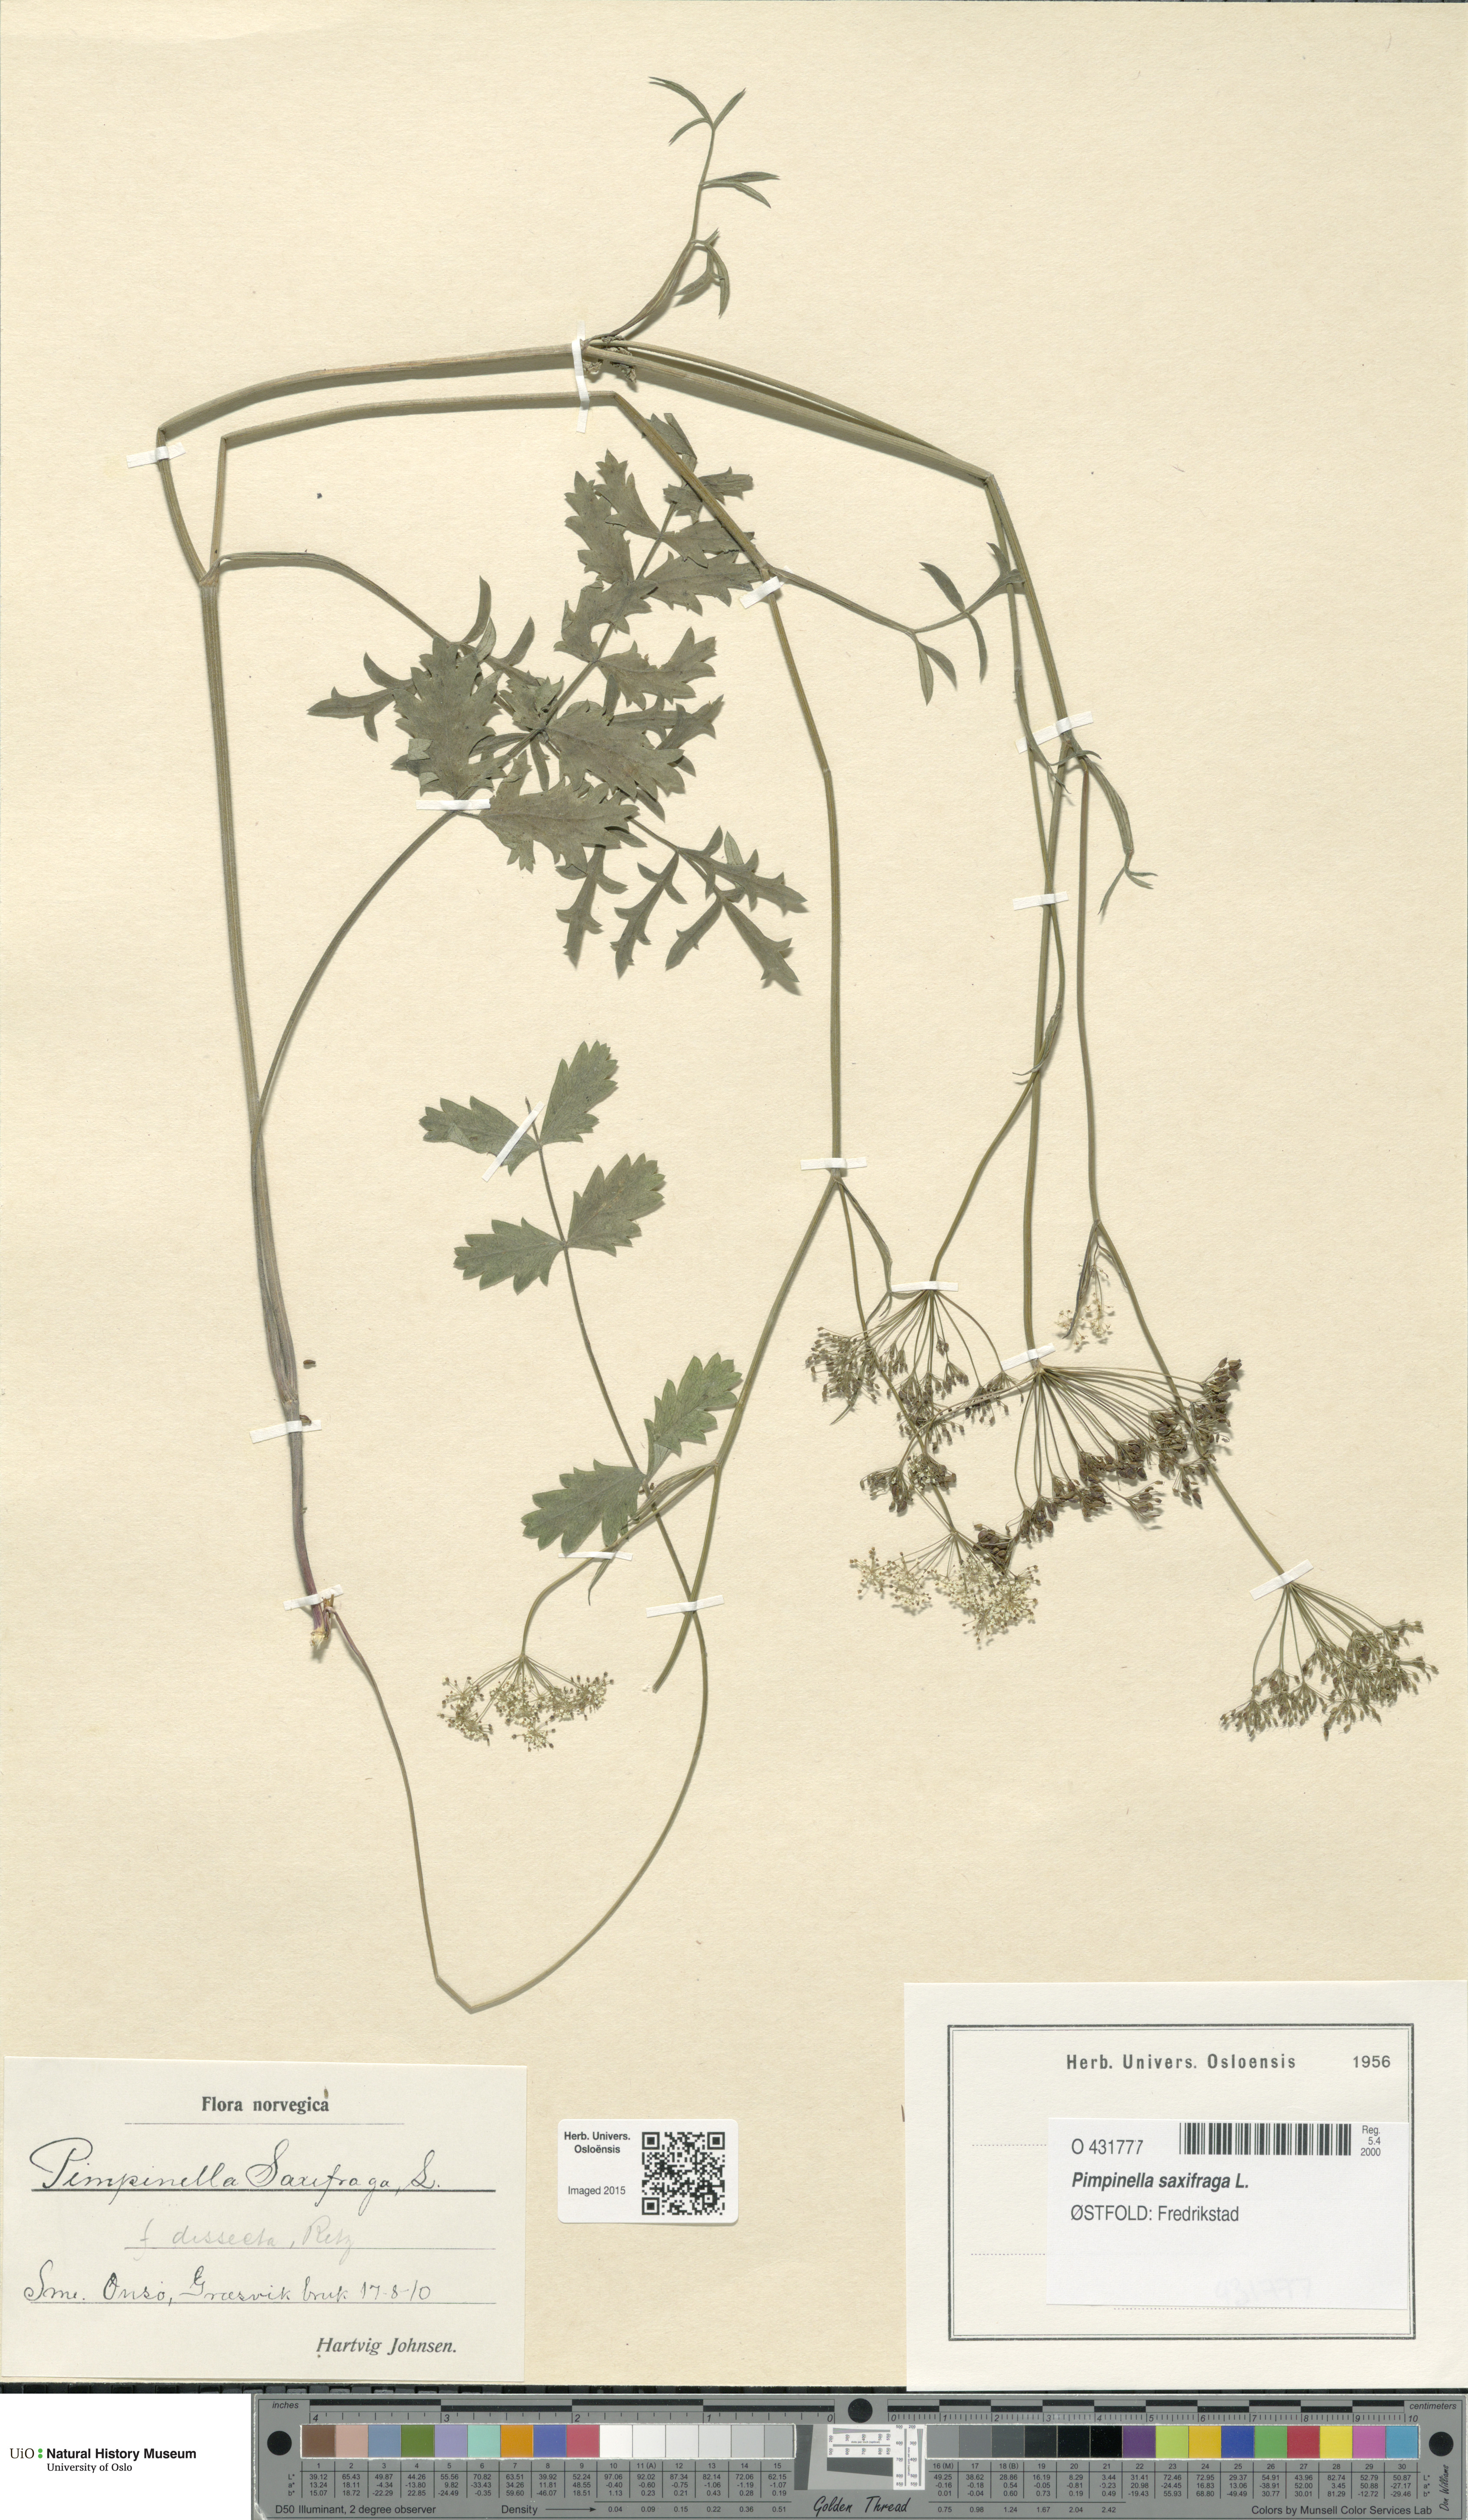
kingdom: Plantae
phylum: Tracheophyta
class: Magnoliopsida
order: Apiales
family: Apiaceae
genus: Pimpinella
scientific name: Pimpinella saxifraga
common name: Burnet-saxifrage
